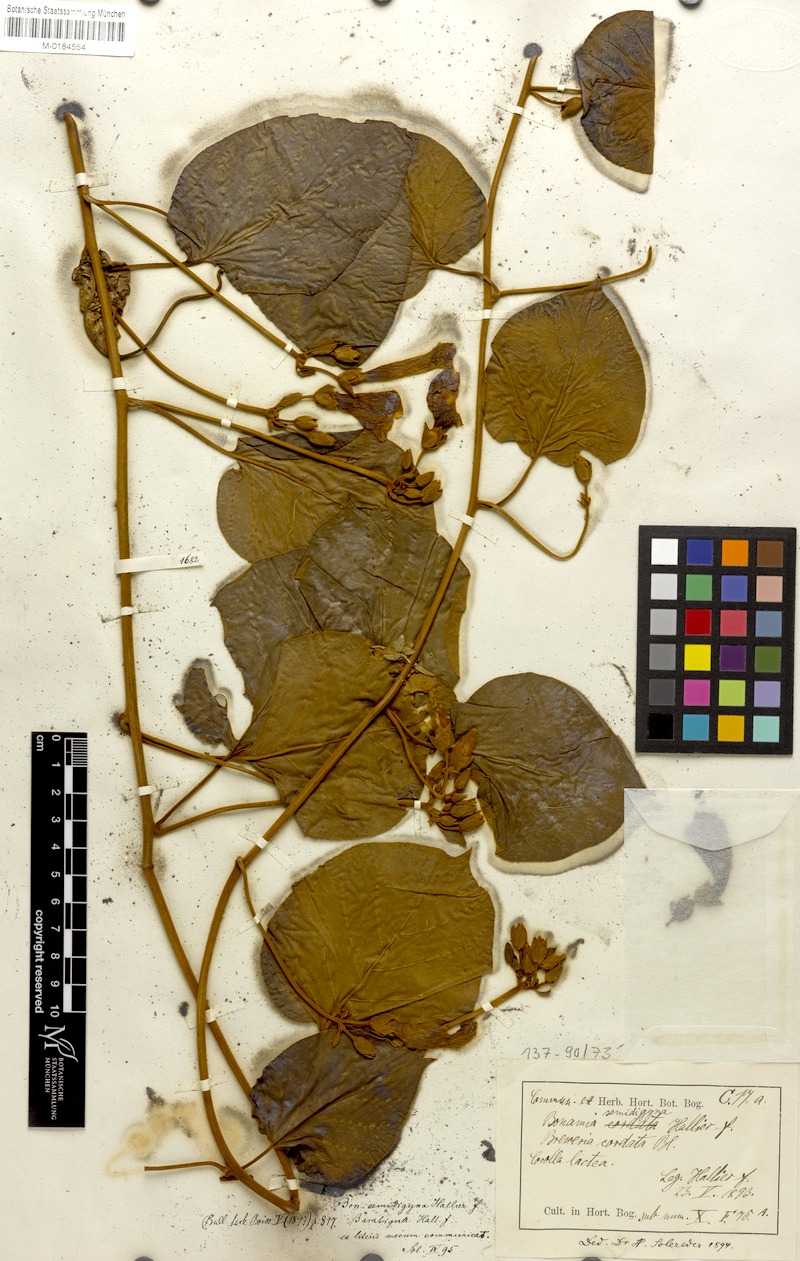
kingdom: Plantae
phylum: Tracheophyta
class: Magnoliopsida
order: Solanales
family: Convolvulaceae
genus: Bonamia
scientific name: Bonamia semidigyna
